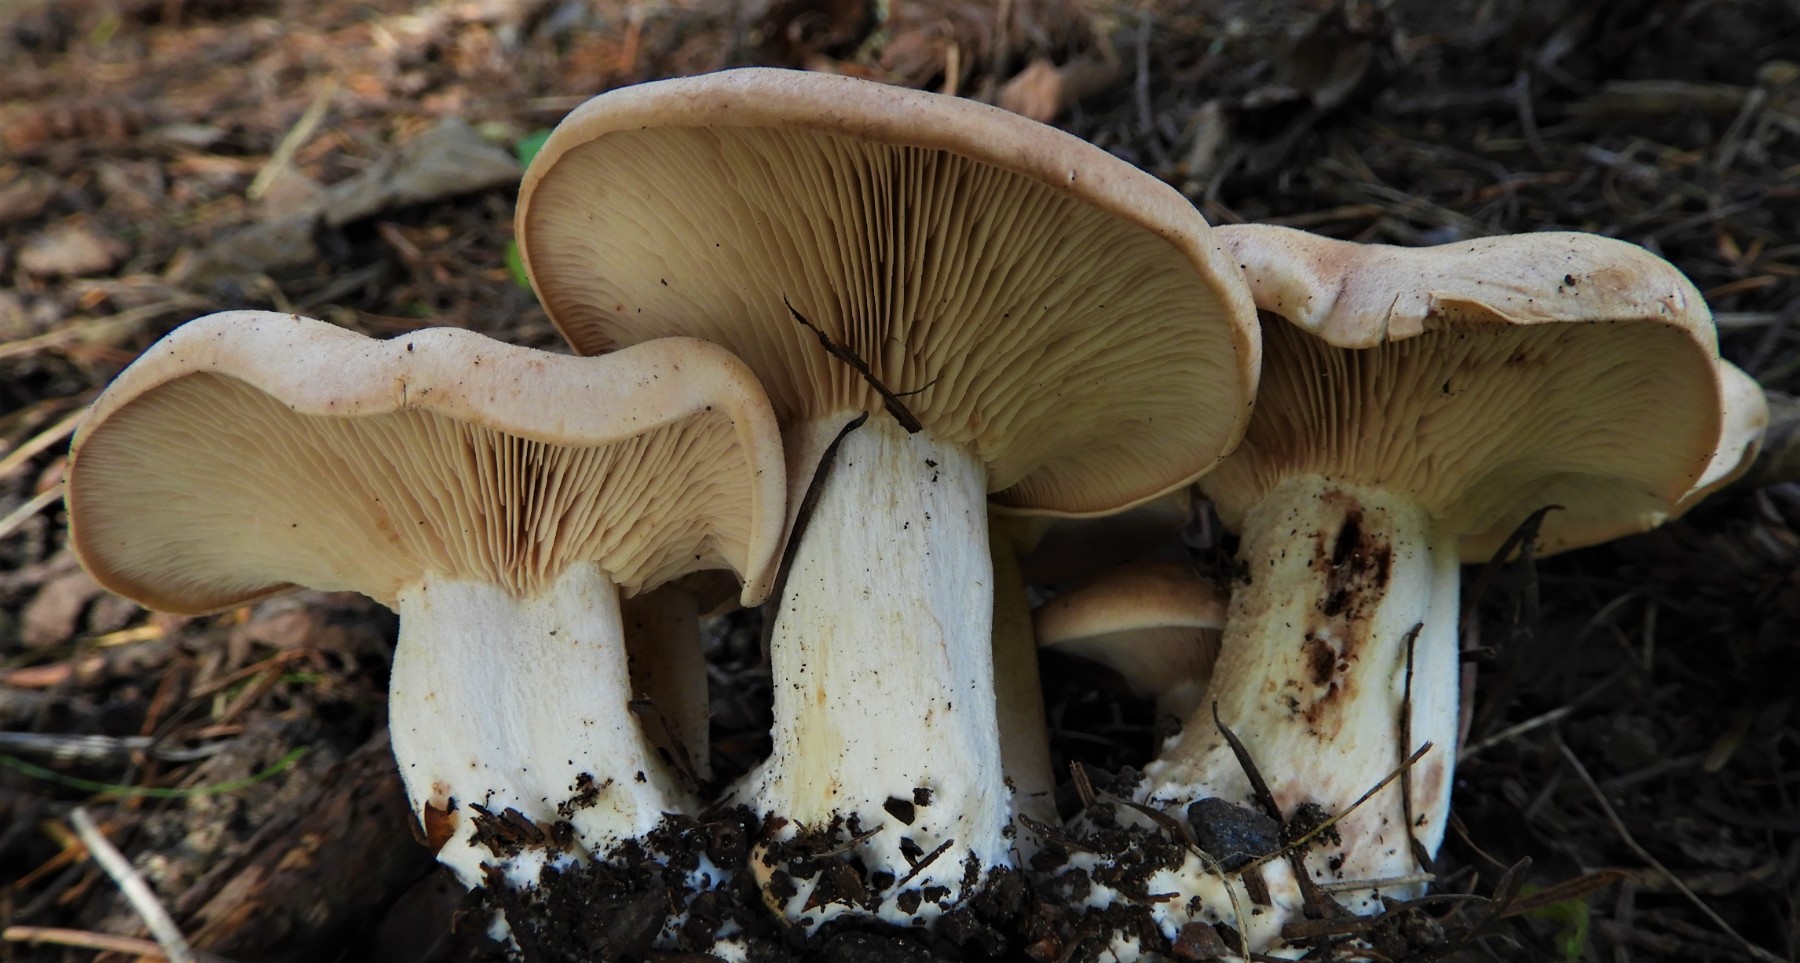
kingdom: Fungi
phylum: Basidiomycota
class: Agaricomycetes
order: Agaricales
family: Entolomataceae
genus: Clitopilus
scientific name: Clitopilus geminus
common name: kødfarvet troldhat
